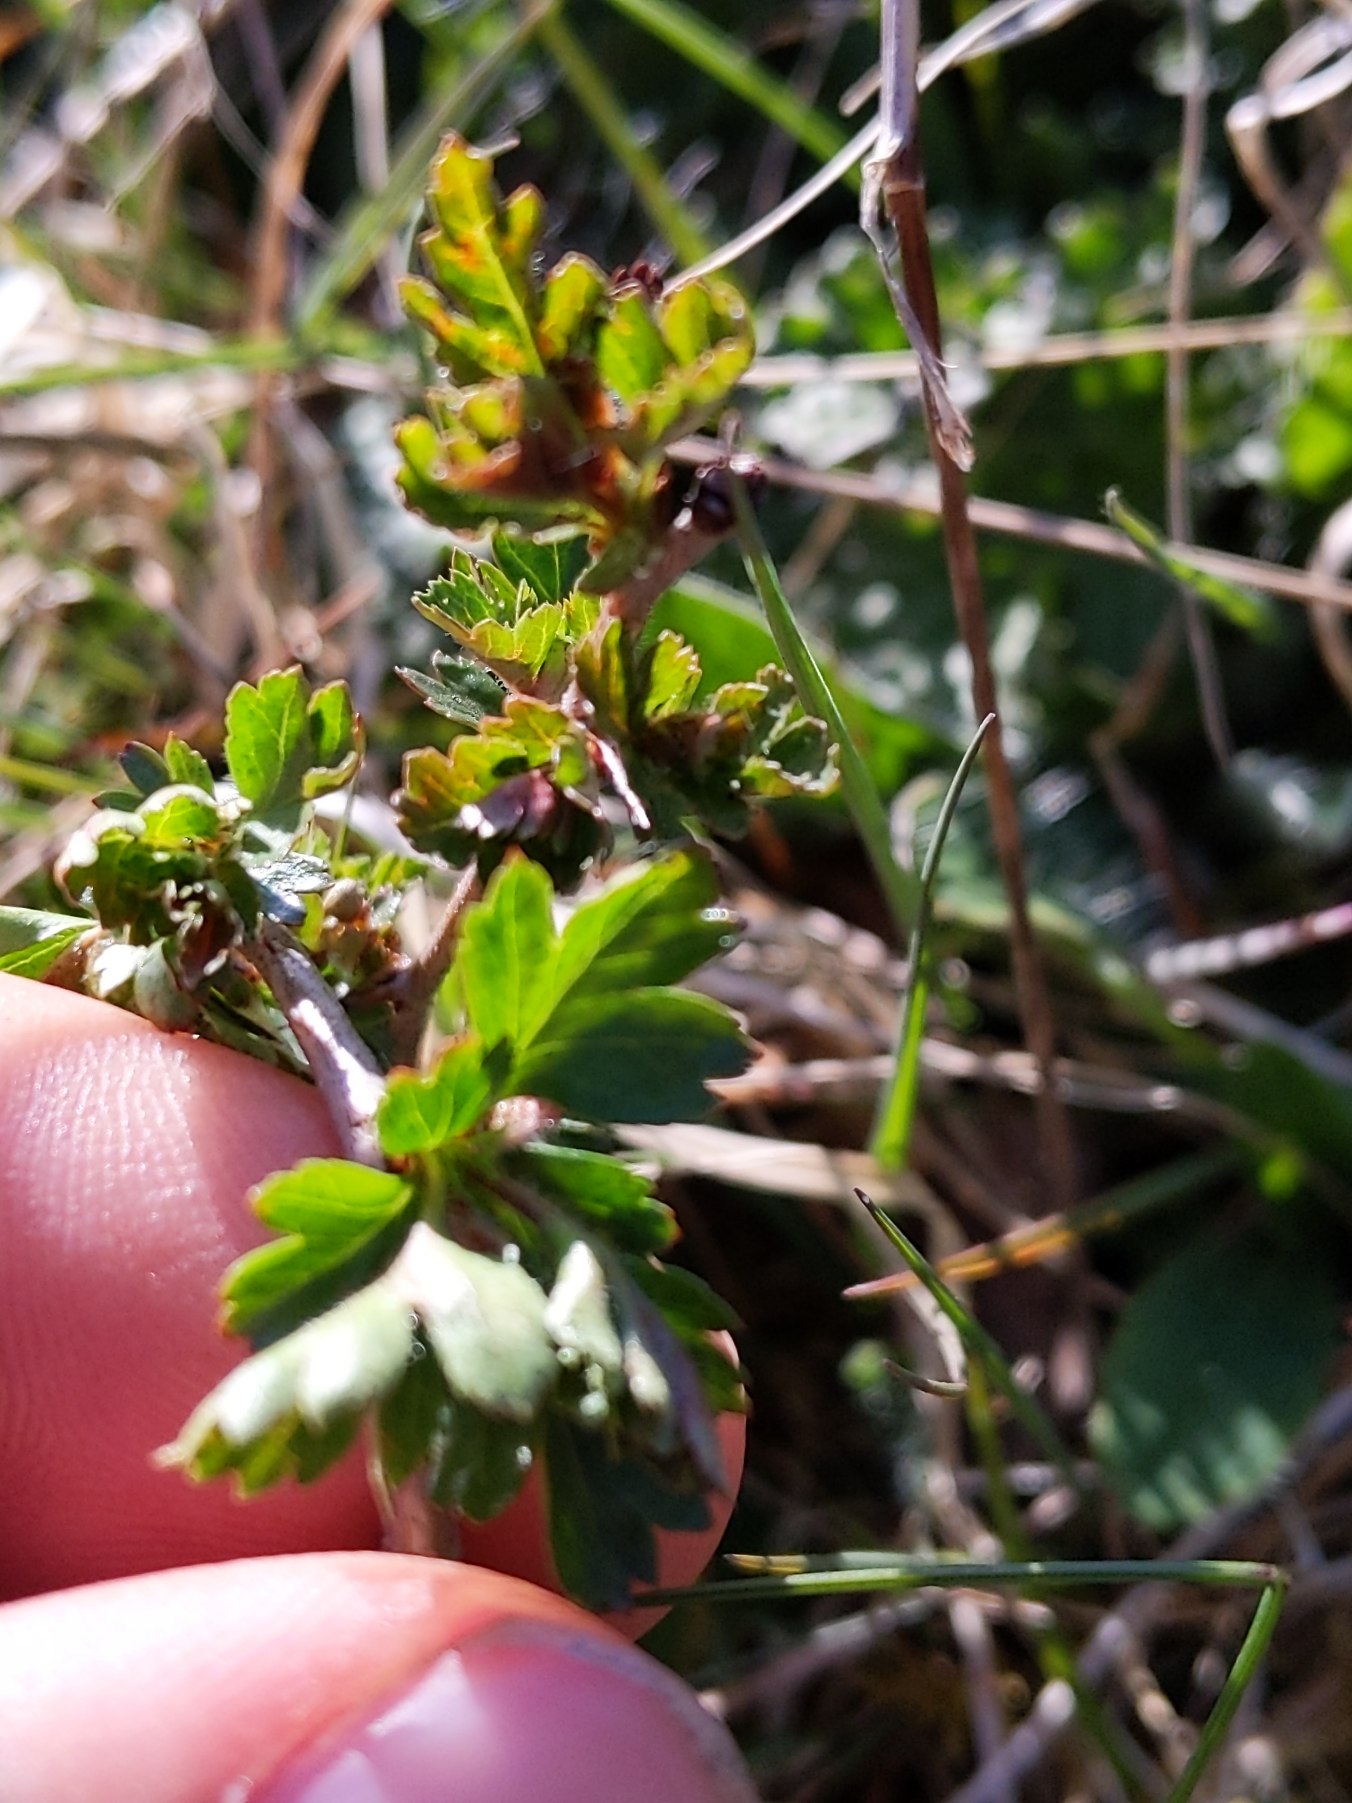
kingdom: Plantae
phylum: Tracheophyta
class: Magnoliopsida
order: Rosales
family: Rosaceae
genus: Crataegus
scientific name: Crataegus monogyna
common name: Engriflet hvidtjørn
